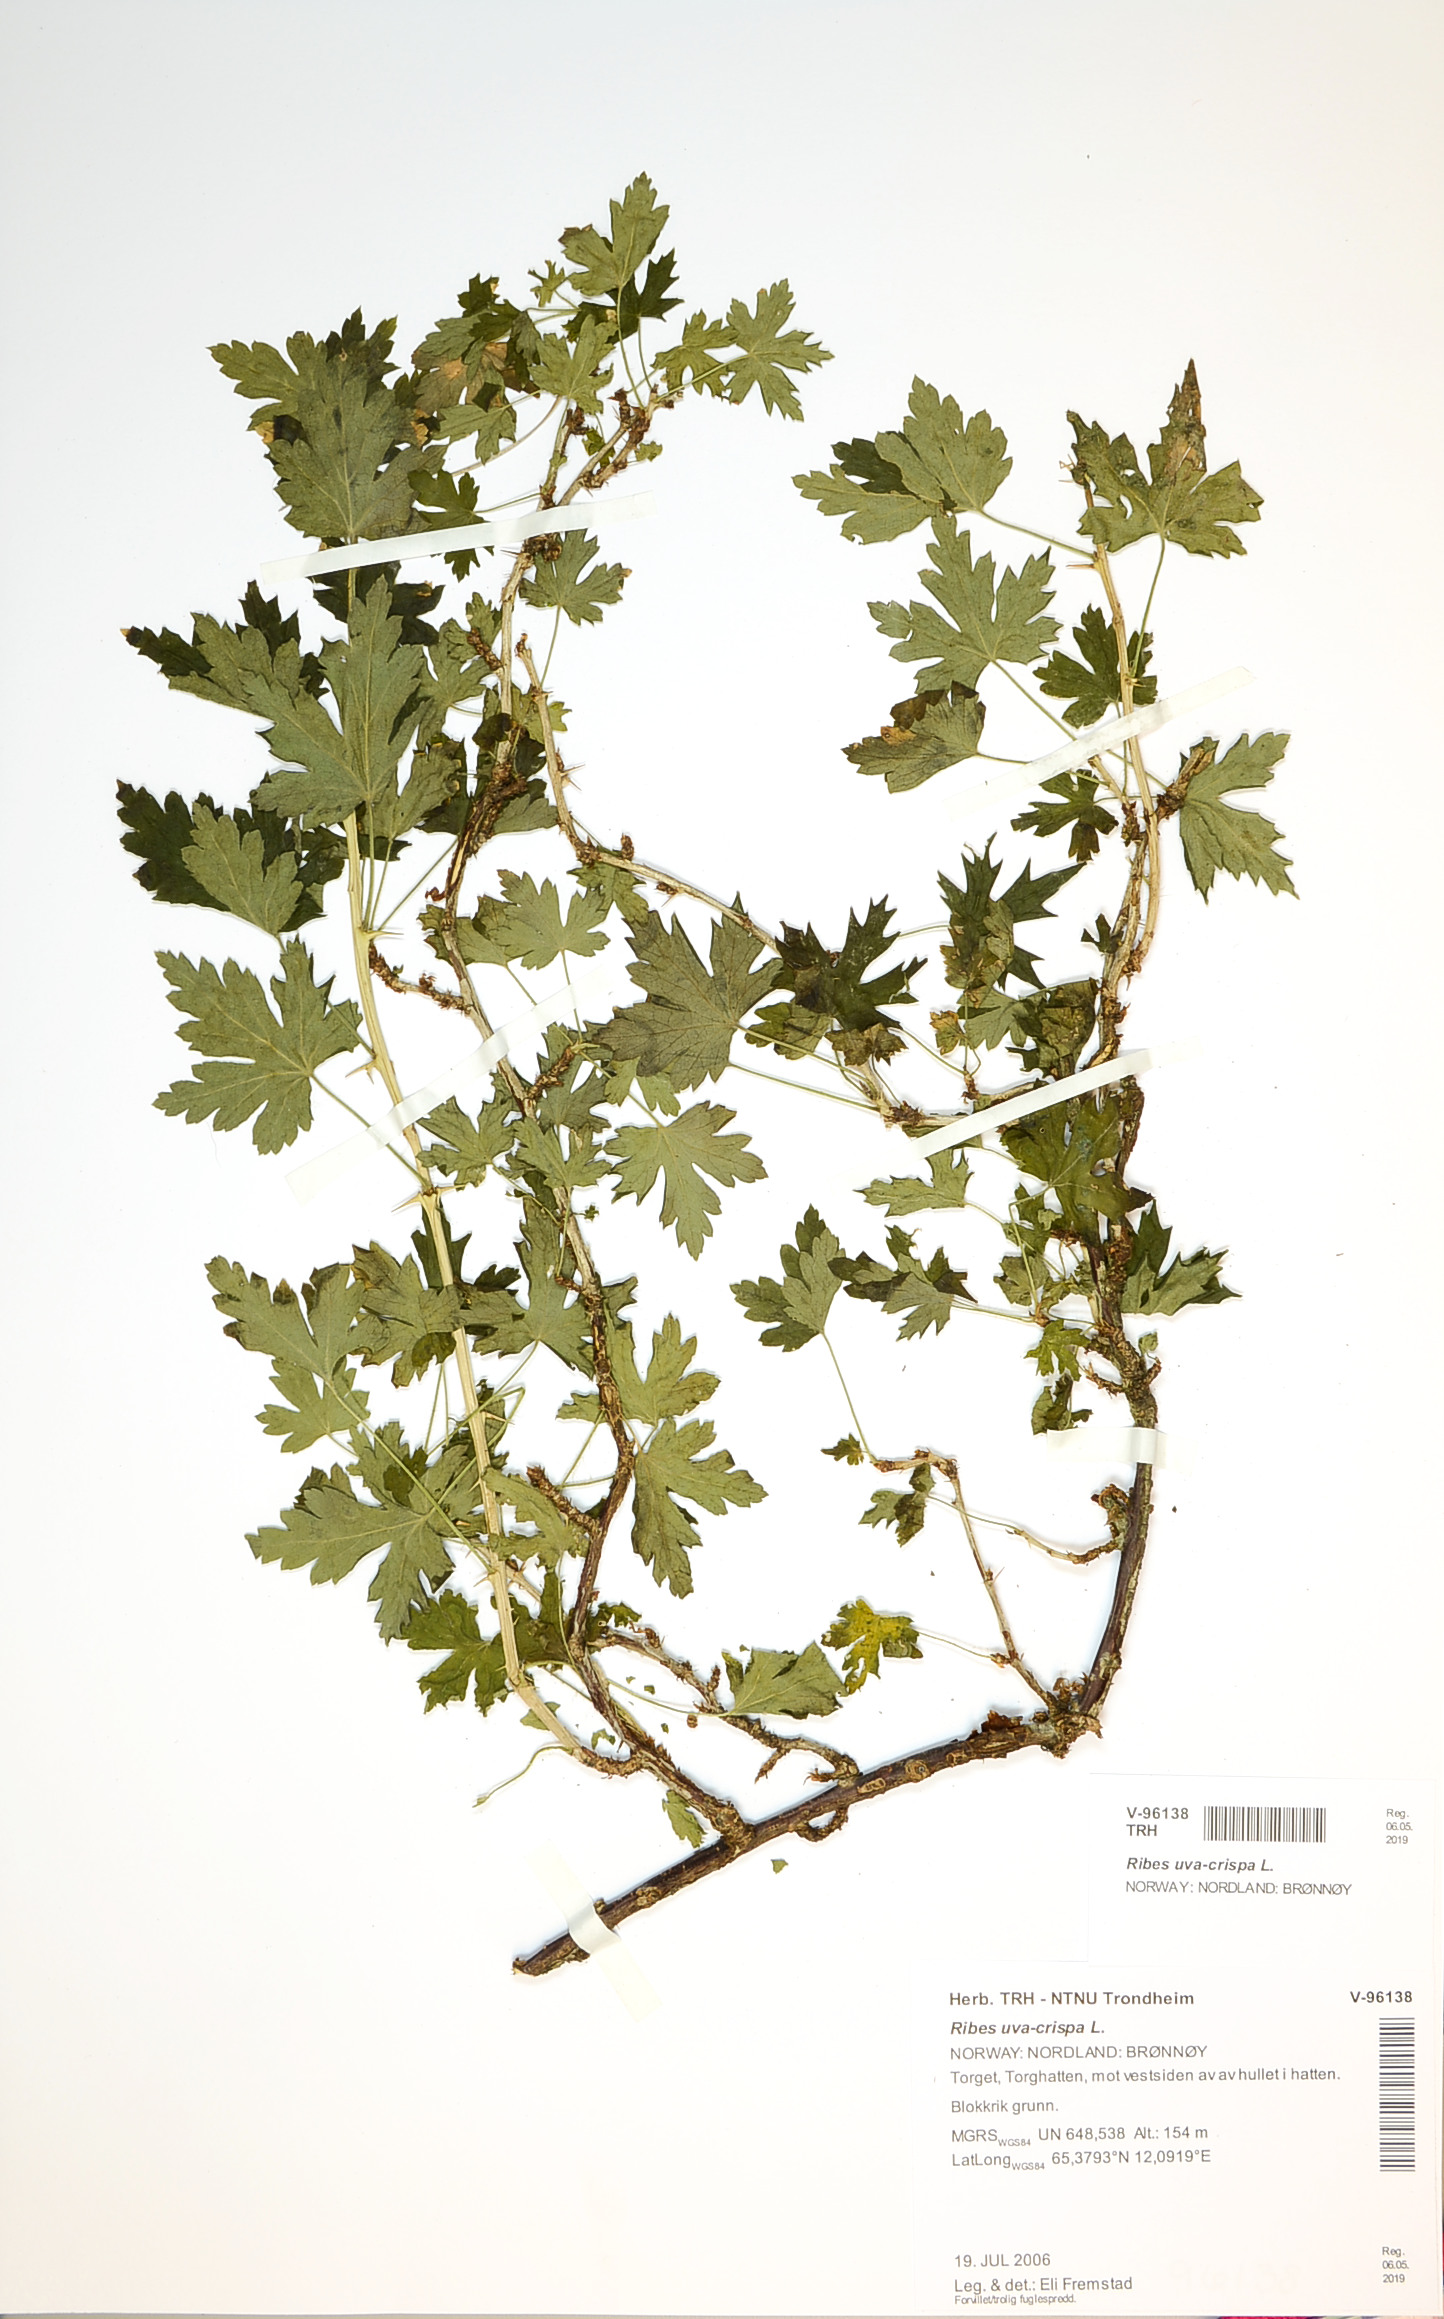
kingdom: Plantae
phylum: Tracheophyta
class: Magnoliopsida
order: Saxifragales
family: Grossulariaceae
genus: Ribes
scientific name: Ribes uva-crispa
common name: Gooseberry
